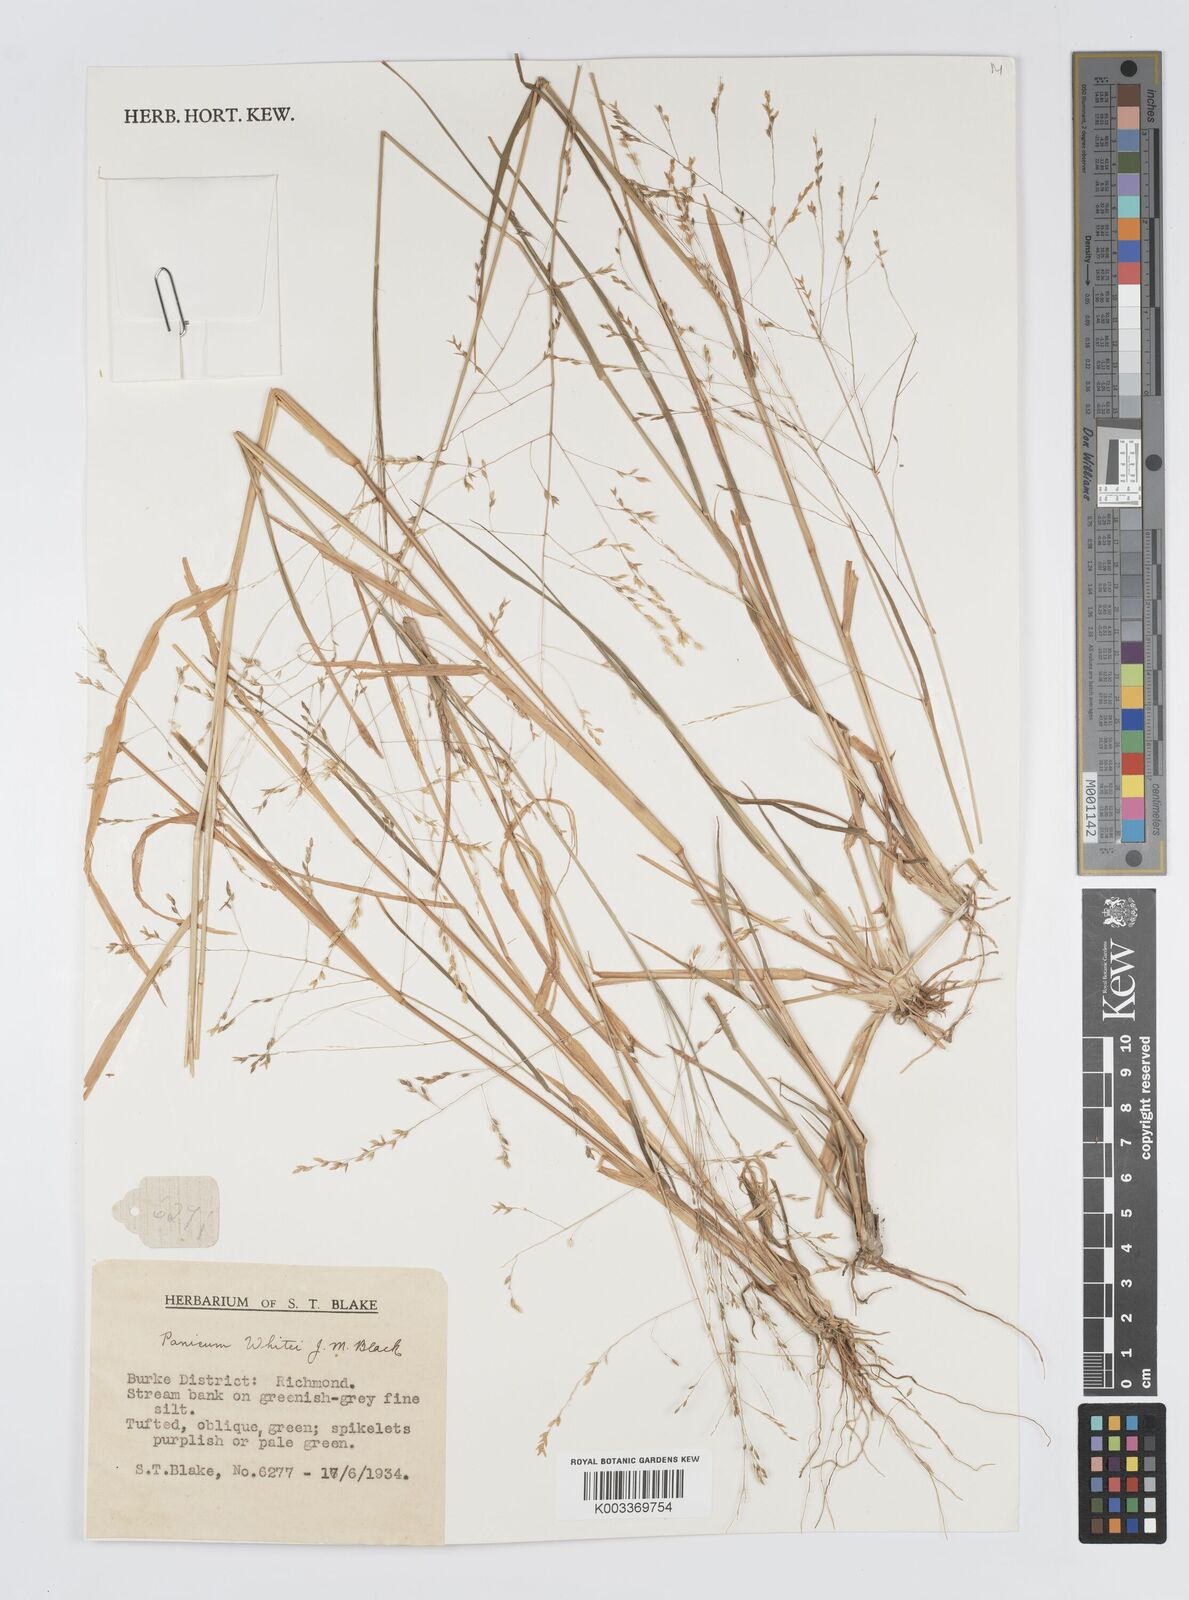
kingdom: Plantae
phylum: Tracheophyta
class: Liliopsida
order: Poales
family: Poaceae
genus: Panicum
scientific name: Panicum laevinode
